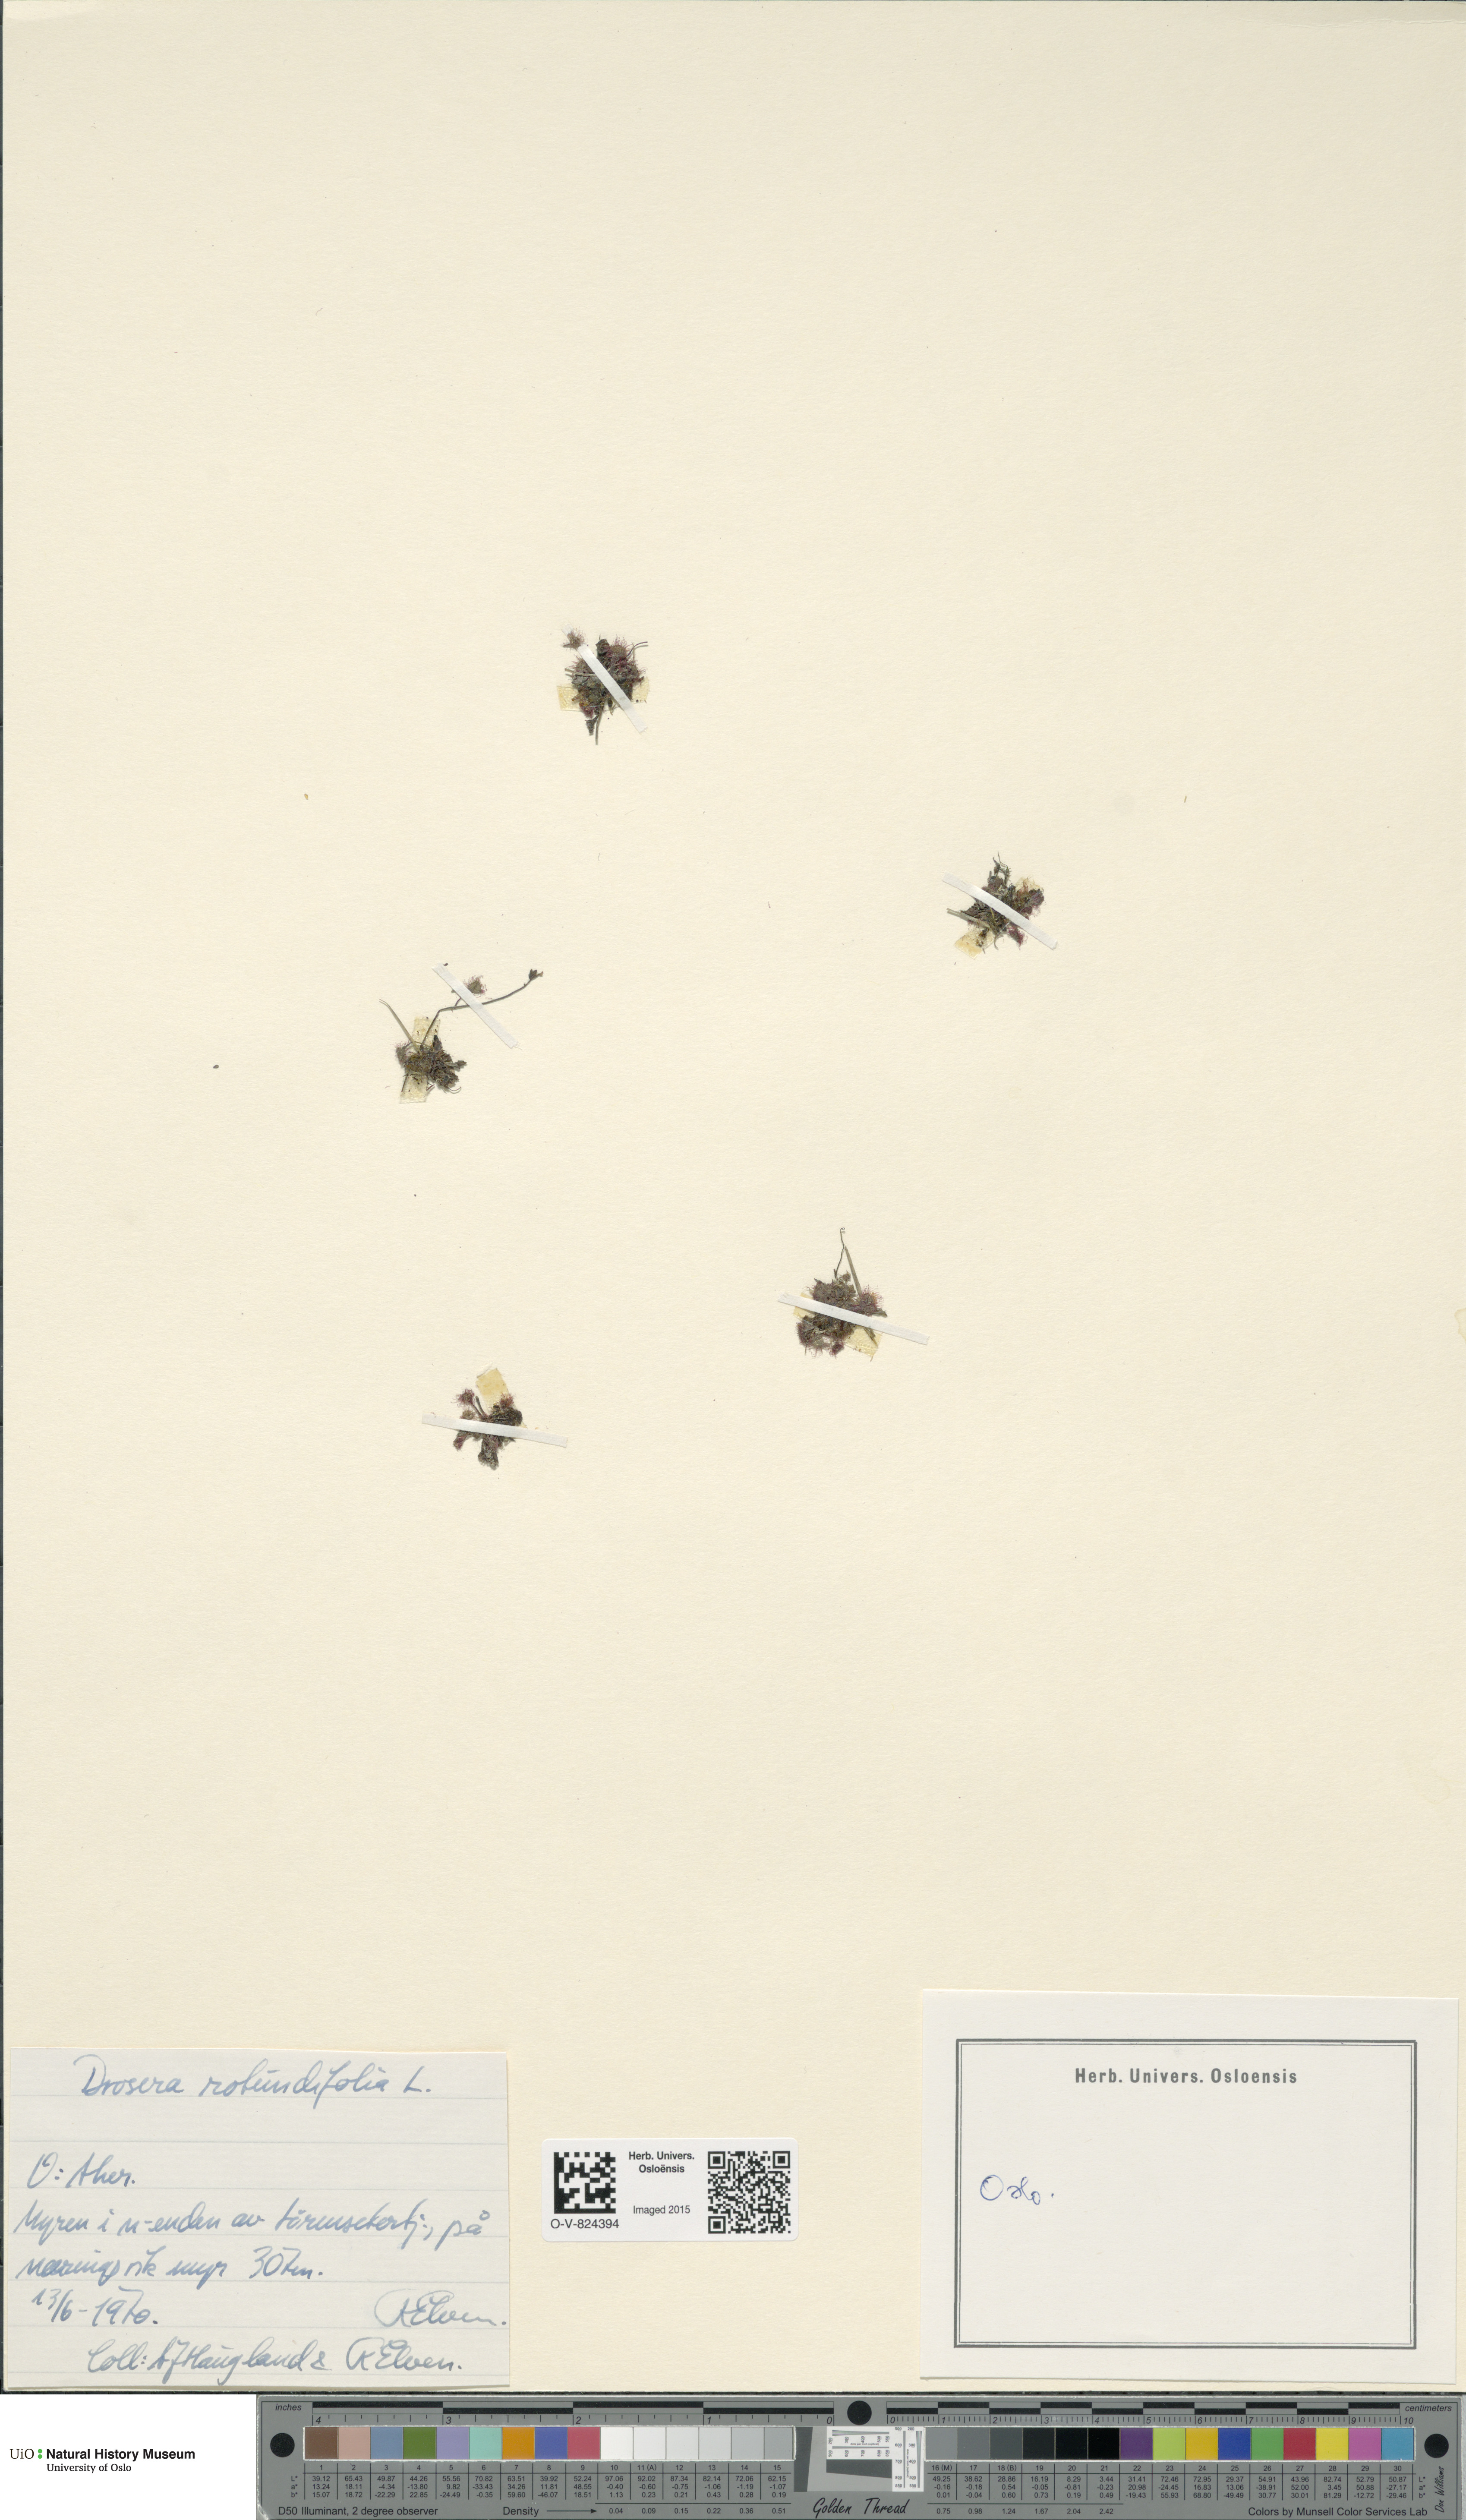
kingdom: Plantae
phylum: Tracheophyta
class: Magnoliopsida
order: Caryophyllales
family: Droseraceae
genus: Drosera
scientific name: Drosera rotundifolia
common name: Round-leaved sundew
